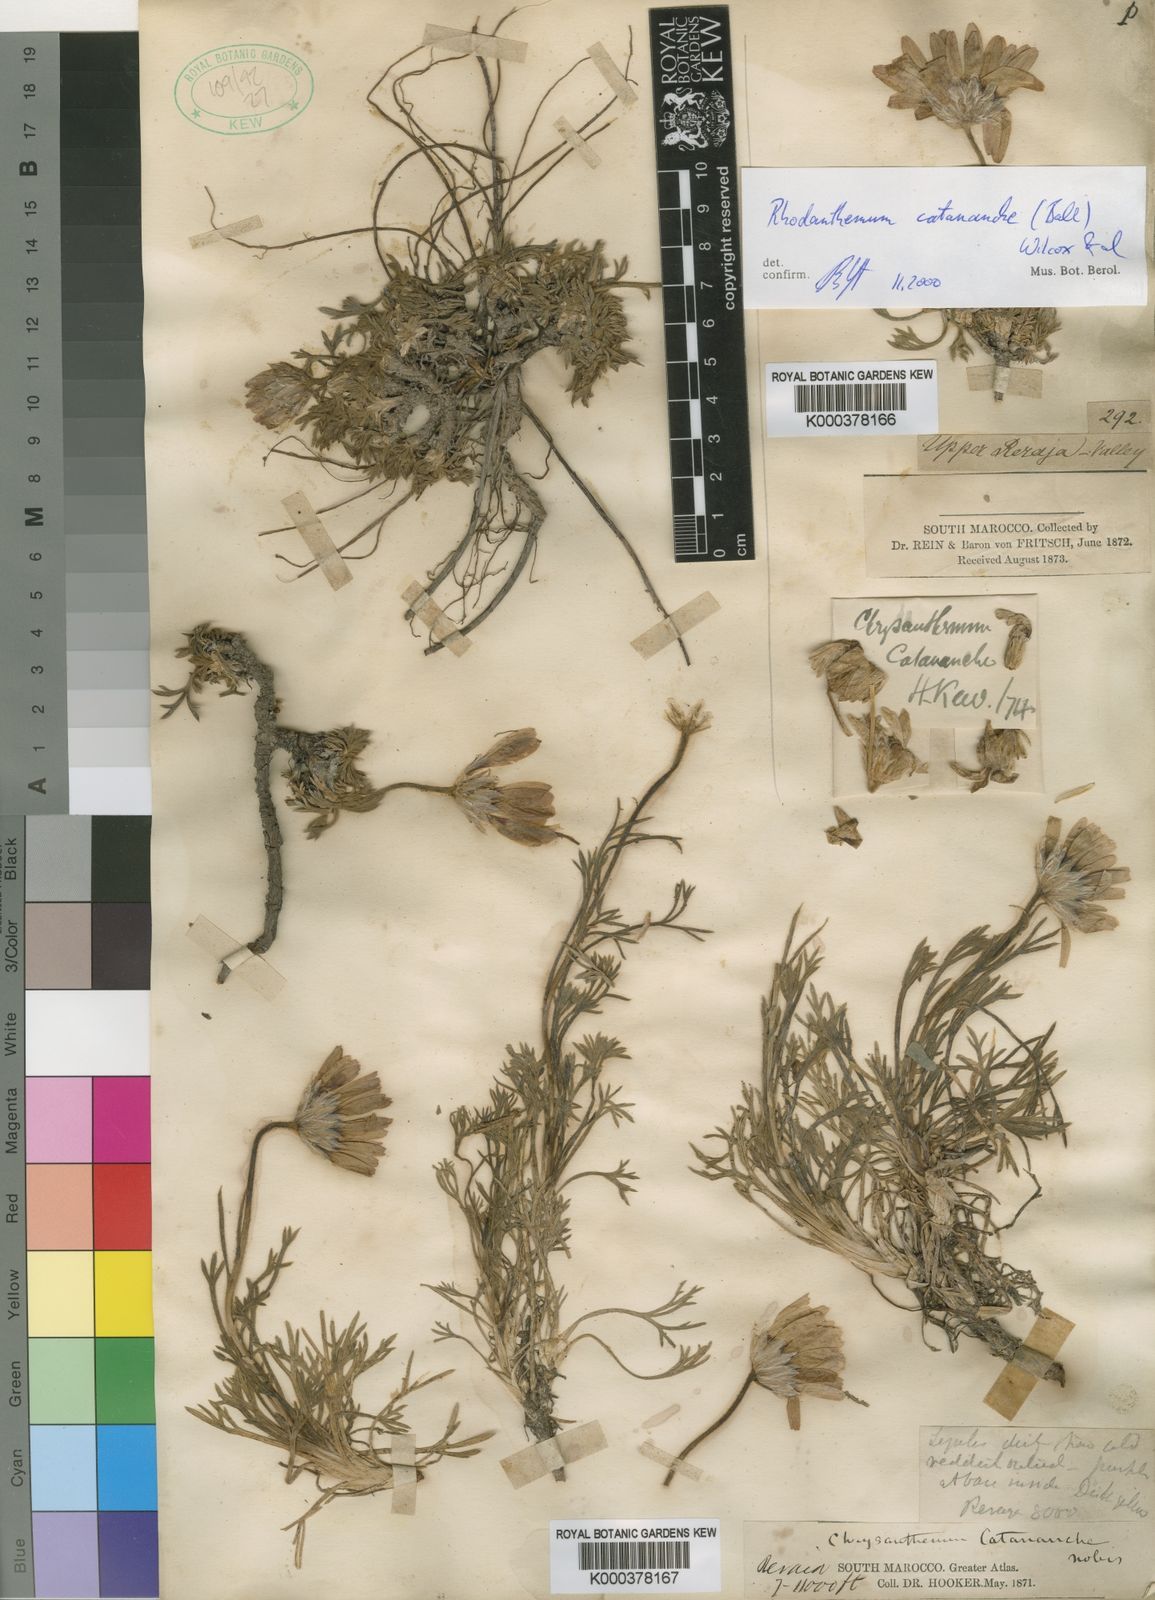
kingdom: Plantae
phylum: Tracheophyta
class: Magnoliopsida
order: Asterales
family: Asteraceae
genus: Rhodanthemum
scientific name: Rhodanthemum
